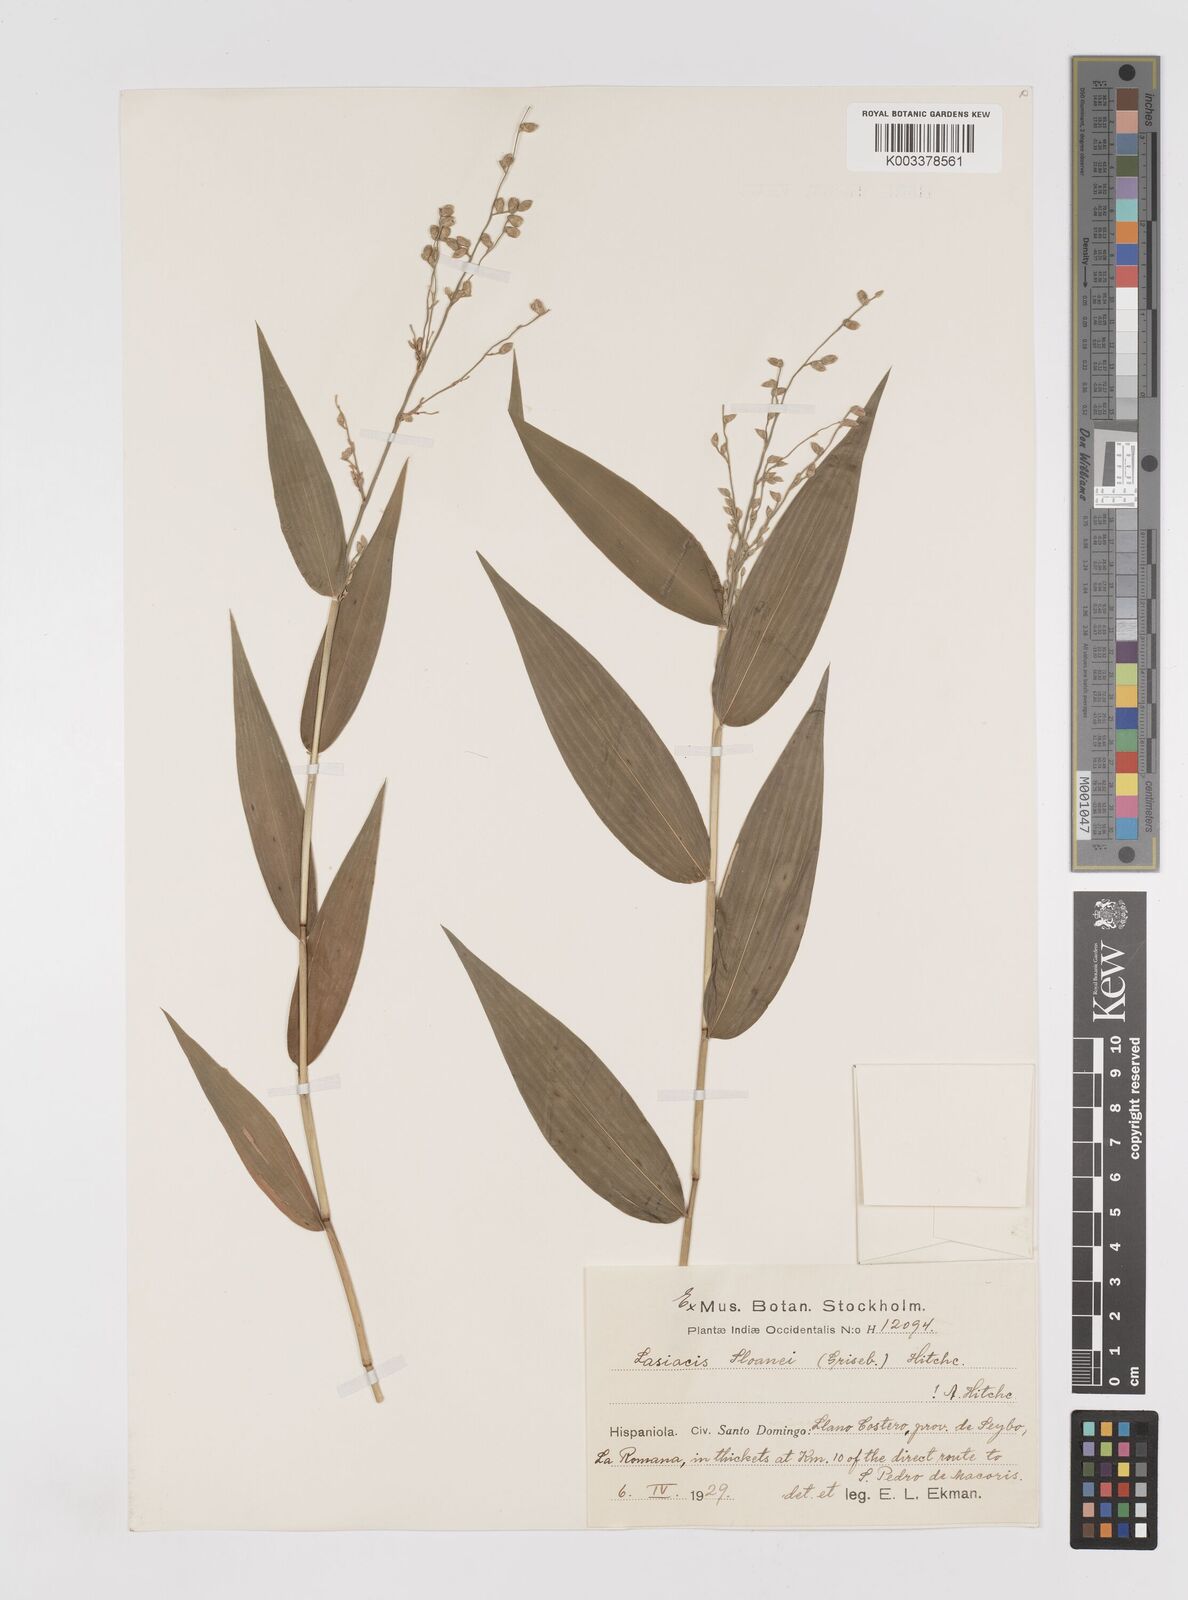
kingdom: Plantae
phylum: Tracheophyta
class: Liliopsida
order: Poales
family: Poaceae
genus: Lasiacis
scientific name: Lasiacis sloanei
